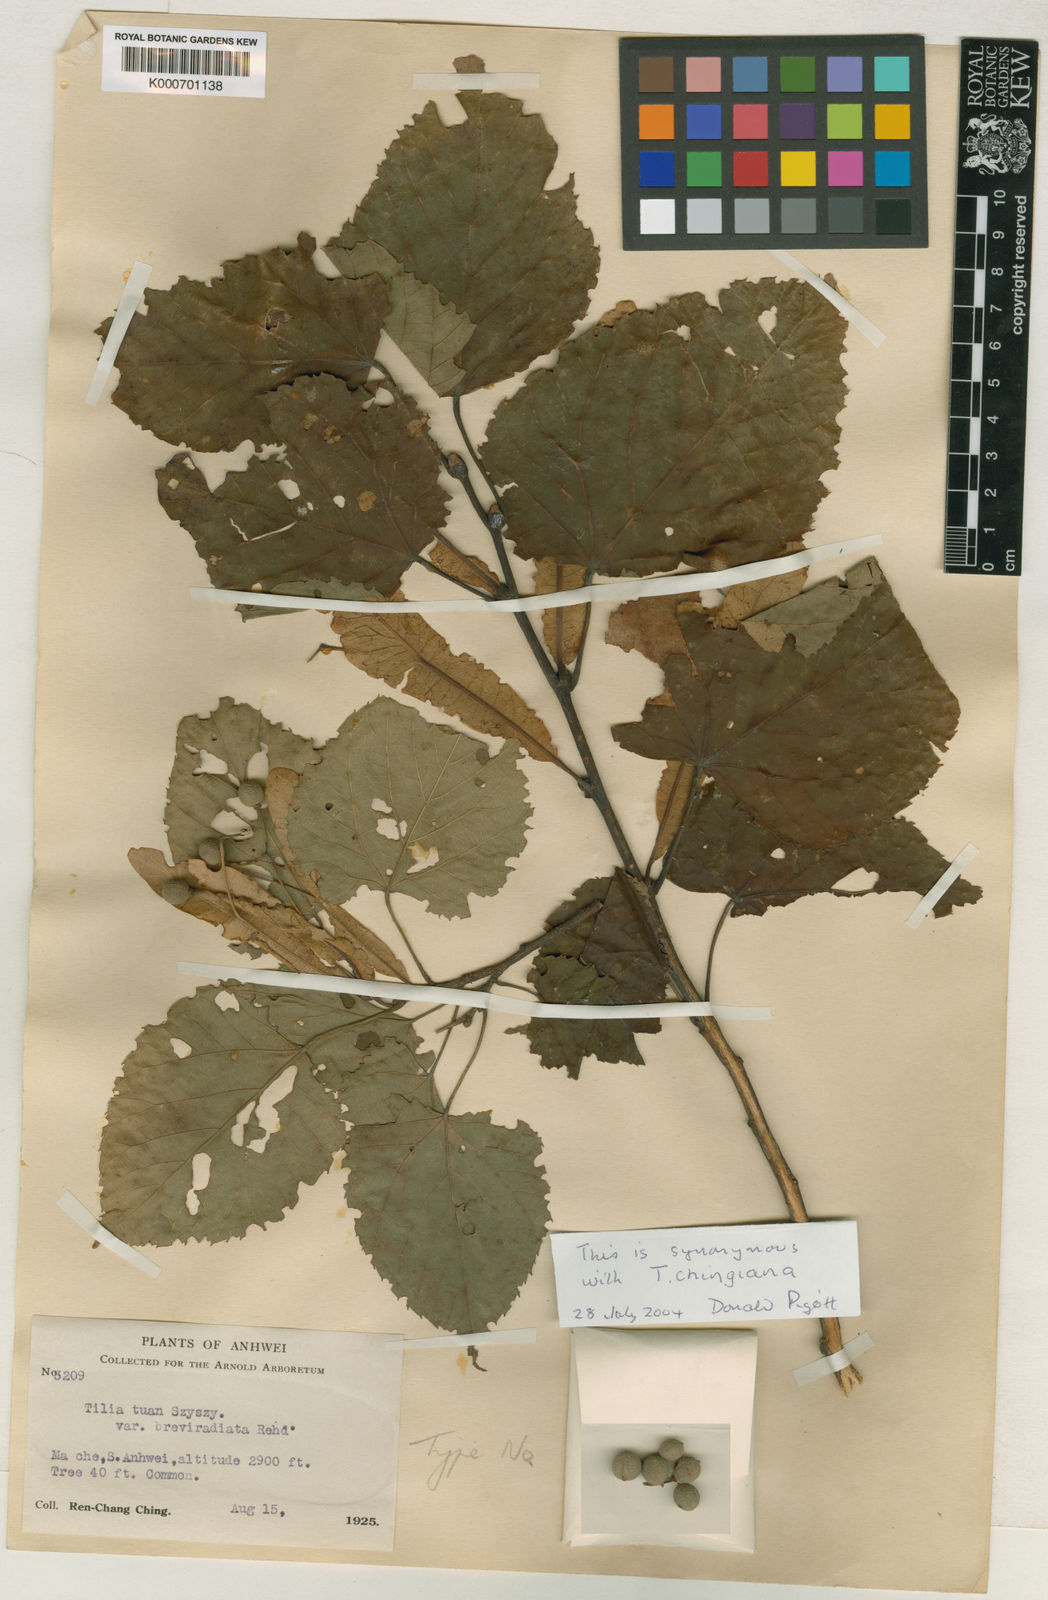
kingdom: Plantae
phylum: Tracheophyta
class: Magnoliopsida
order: Malvales
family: Malvaceae
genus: Tilia
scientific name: Tilia tuan
